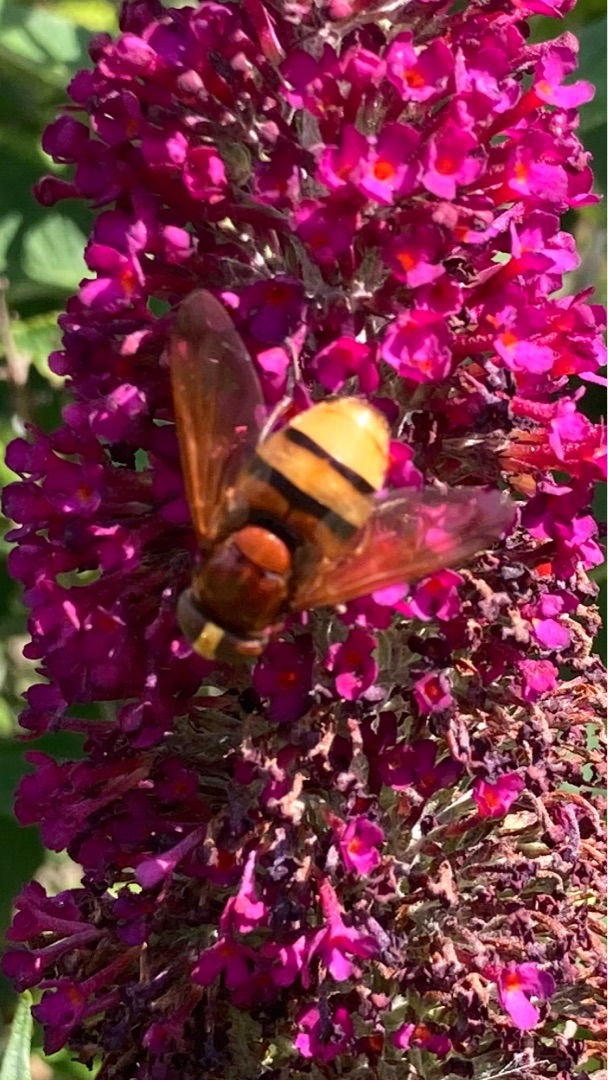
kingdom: Animalia
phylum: Arthropoda
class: Insecta
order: Diptera
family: Syrphidae
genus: Volucella
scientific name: Volucella zonaria
